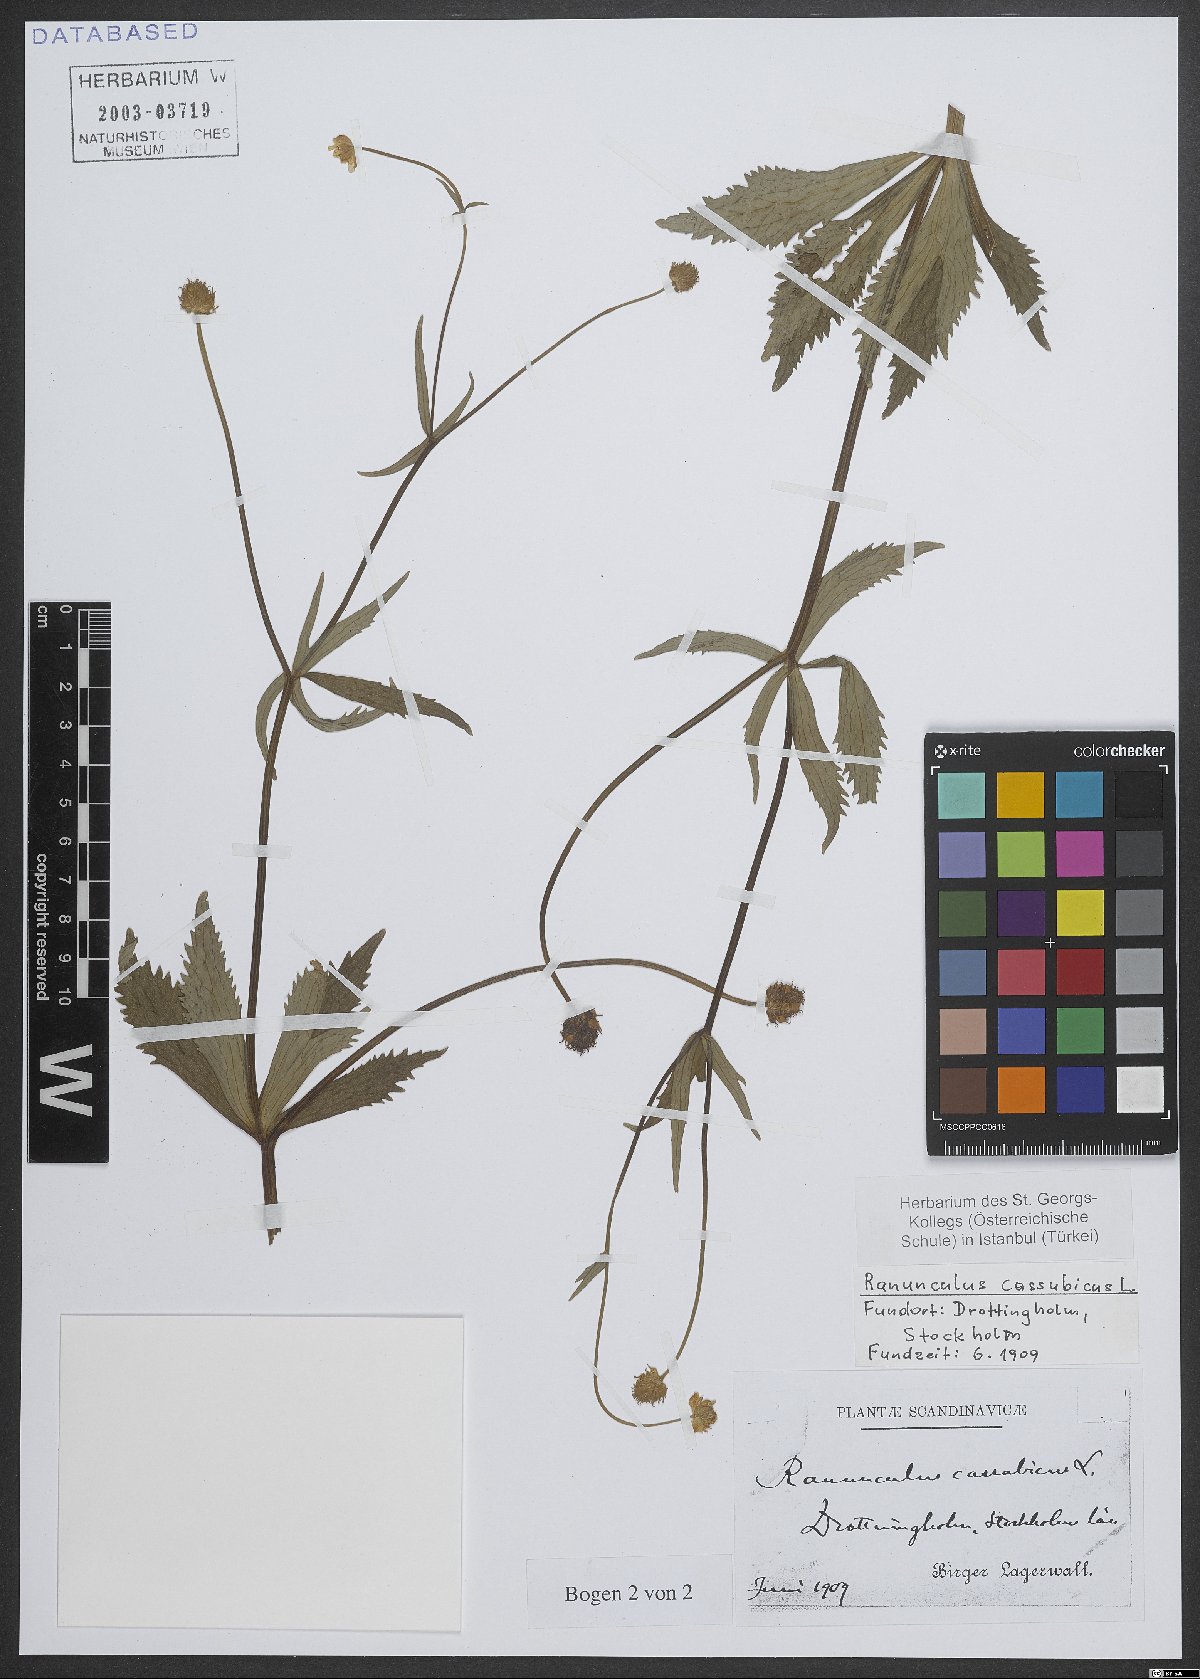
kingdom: Plantae
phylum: Tracheophyta
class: Magnoliopsida
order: Ranunculales
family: Ranunculaceae
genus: Ranunculus
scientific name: Ranunculus cassubicus
